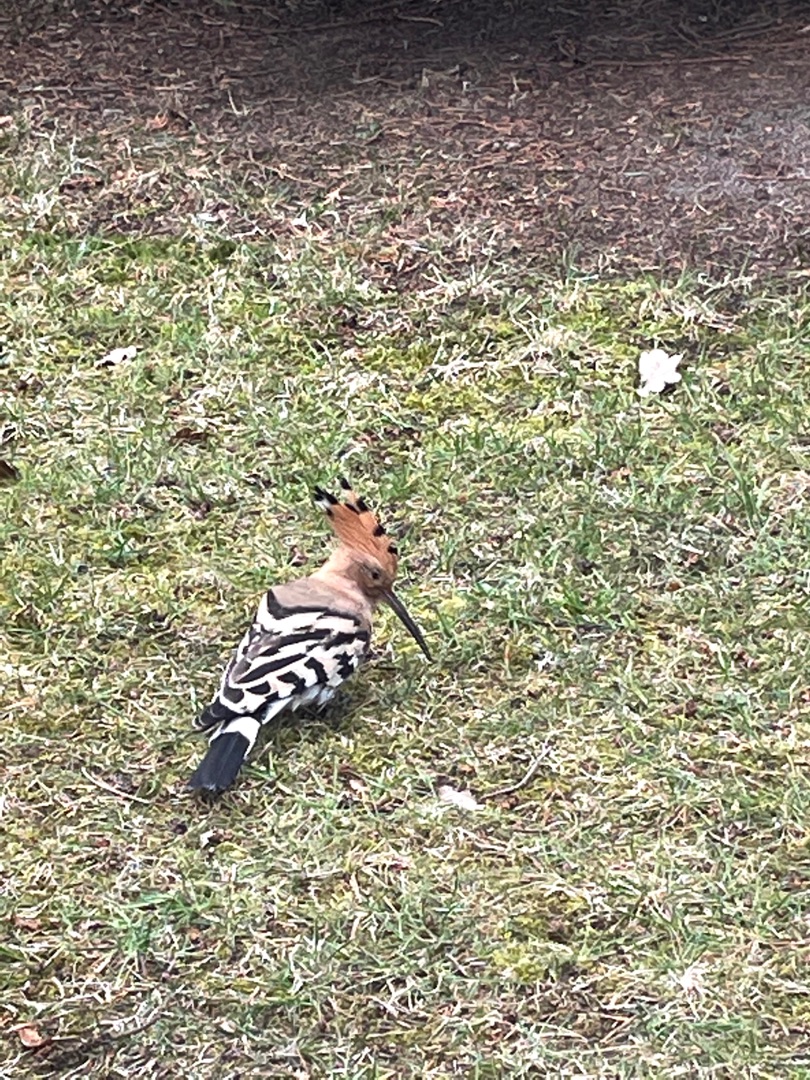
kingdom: Animalia
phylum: Chordata
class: Aves
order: Bucerotiformes
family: Upupidae
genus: Upupa
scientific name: Upupa epops
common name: Hærfugl
